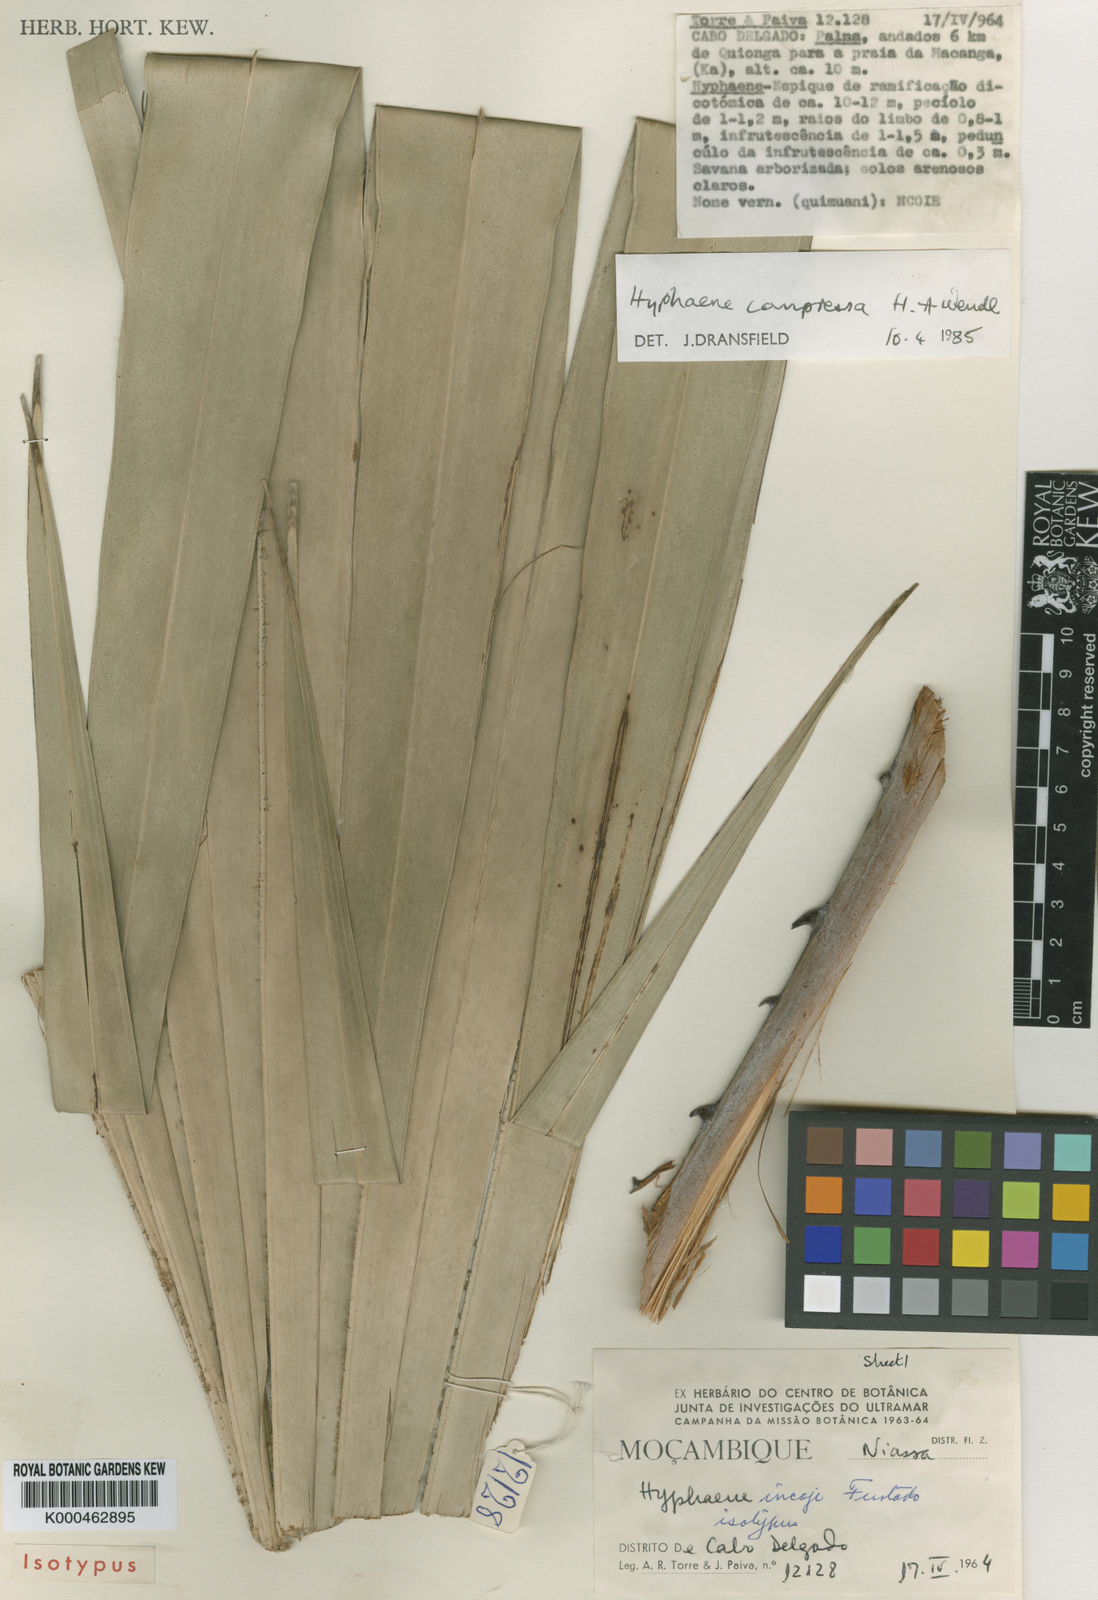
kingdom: Plantae
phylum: Tracheophyta
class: Liliopsida
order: Arecales
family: Arecaceae
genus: Hyphaene
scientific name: Hyphaene compressa
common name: Doum palm
